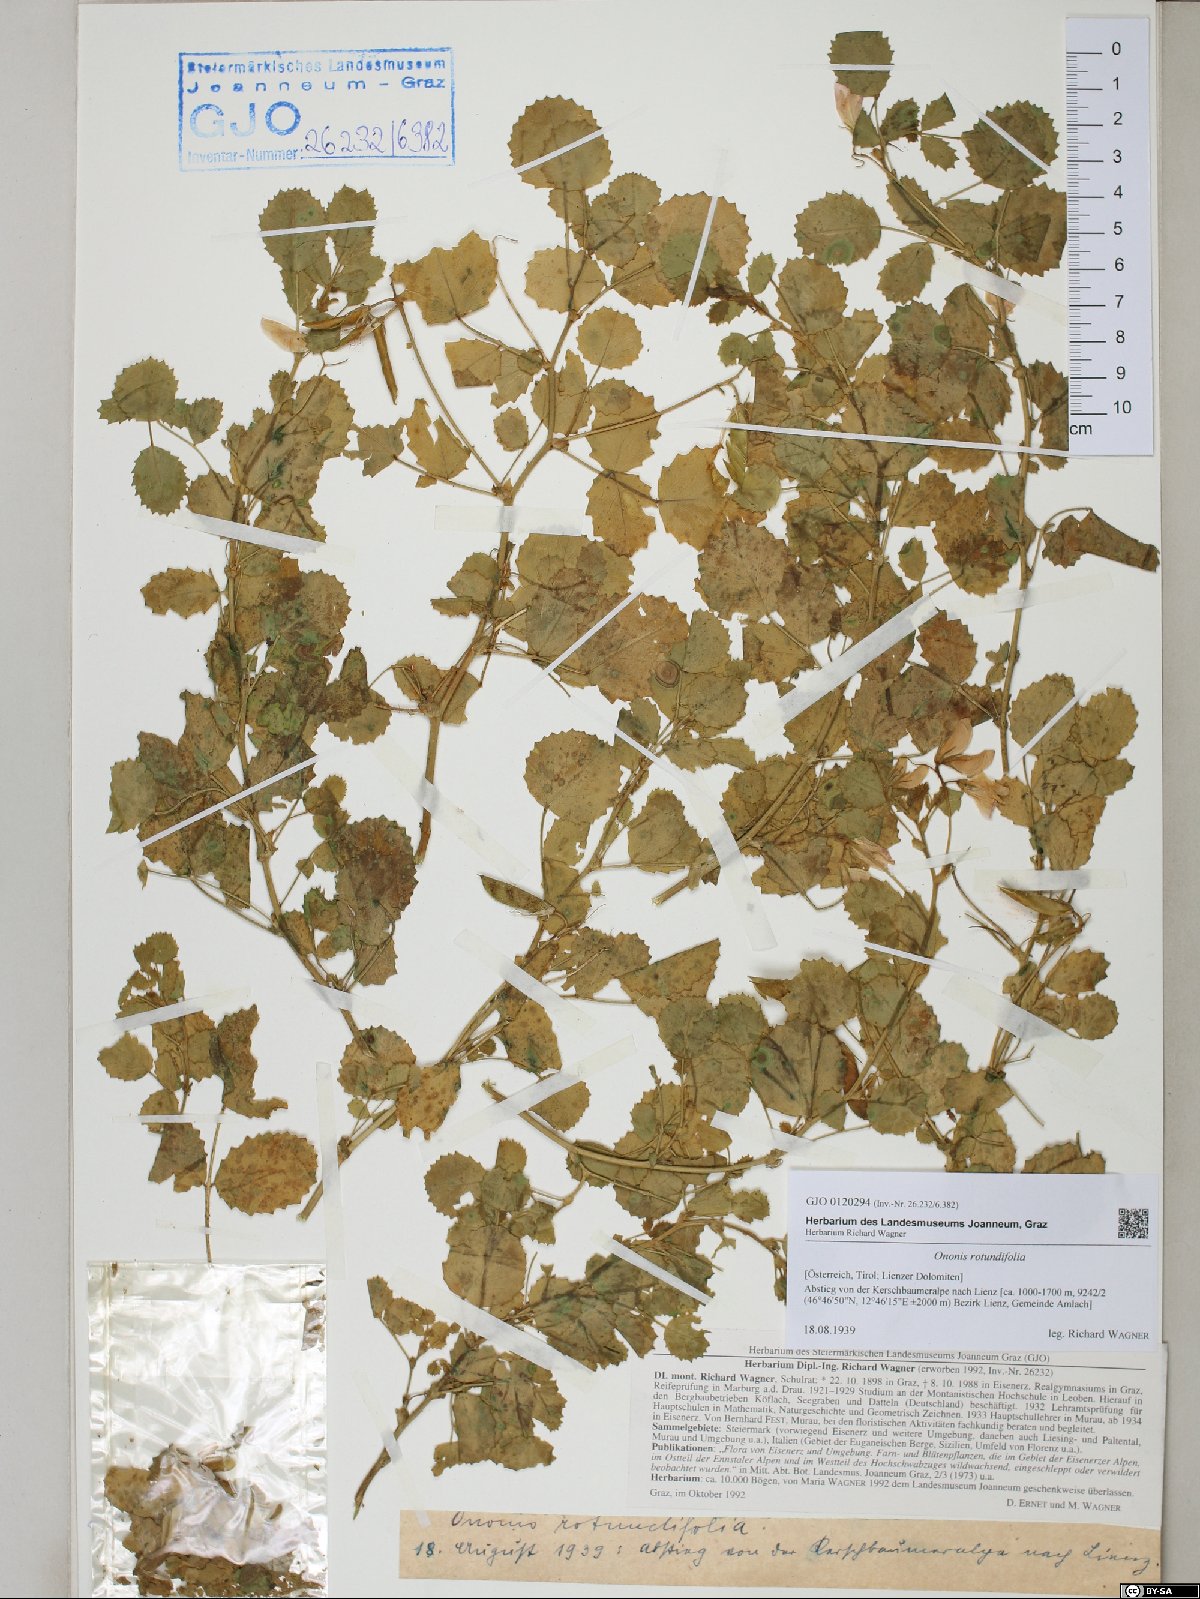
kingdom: Plantae
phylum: Tracheophyta
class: Magnoliopsida
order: Fabales
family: Fabaceae
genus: Ononis
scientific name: Ononis rotundifolia
